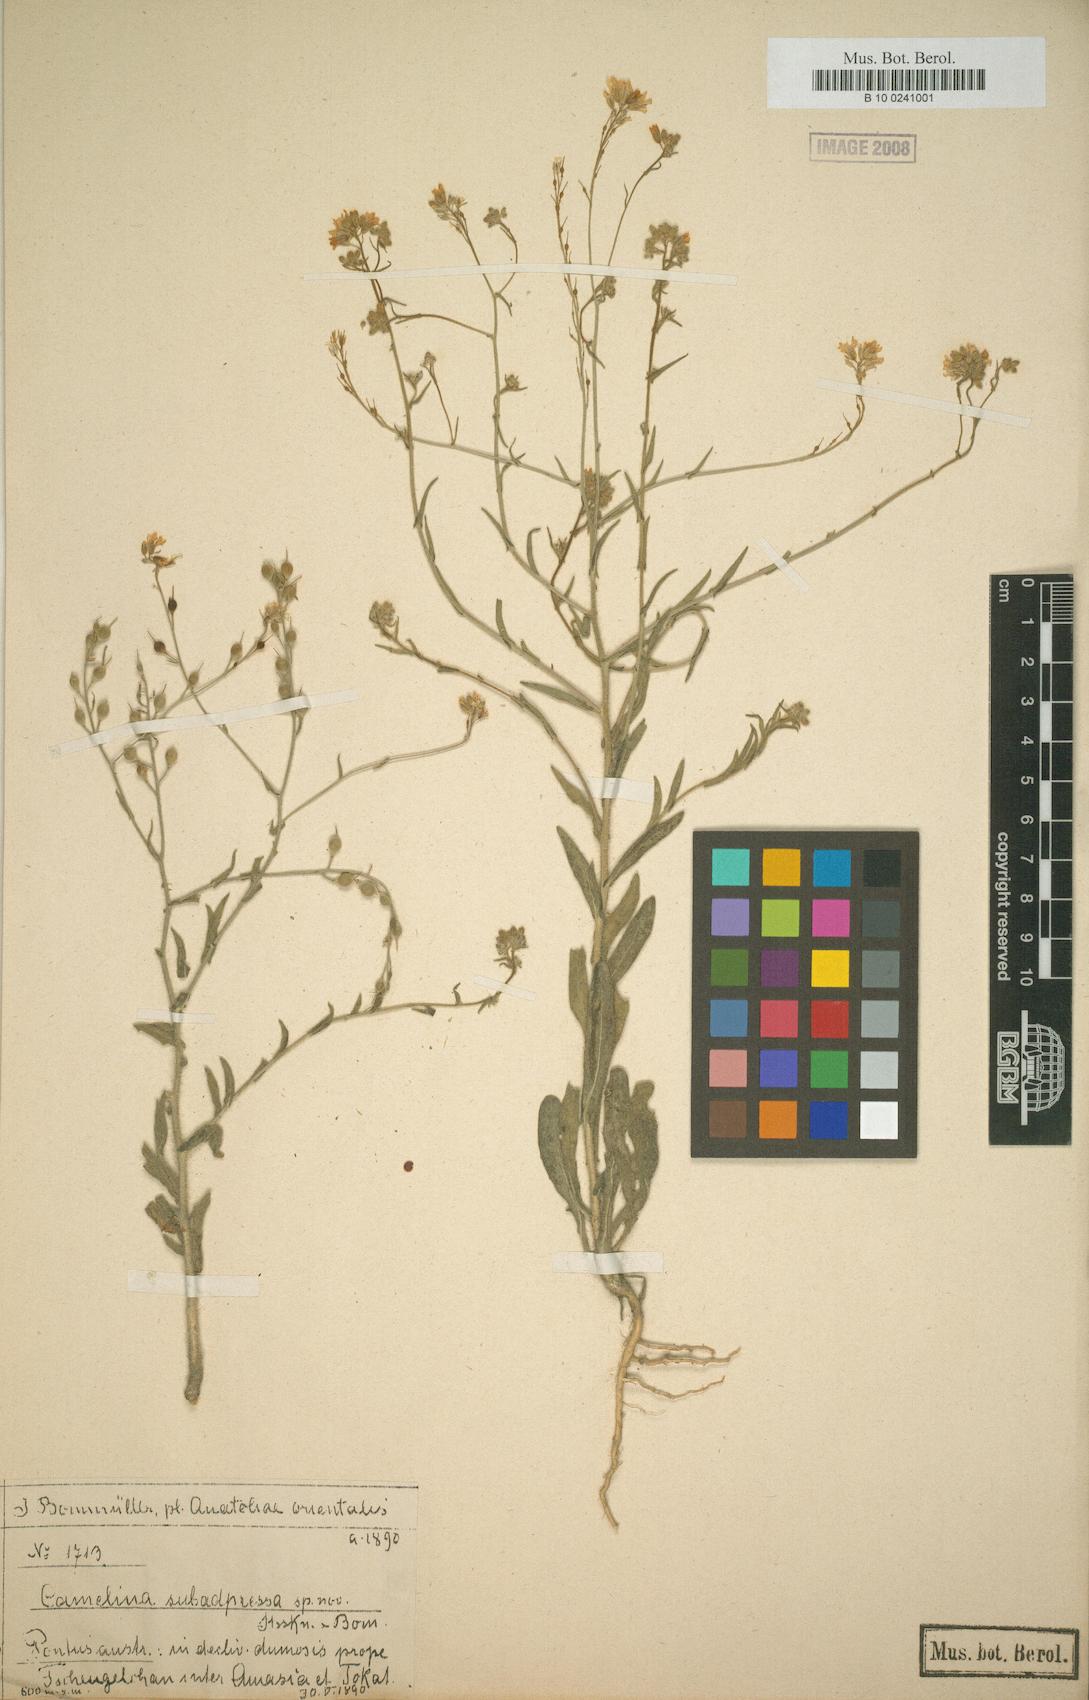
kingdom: Plantae
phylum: Tracheophyta
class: Magnoliopsida
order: Brassicales
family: Brassicaceae
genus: Camelina
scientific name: Camelina hispida
